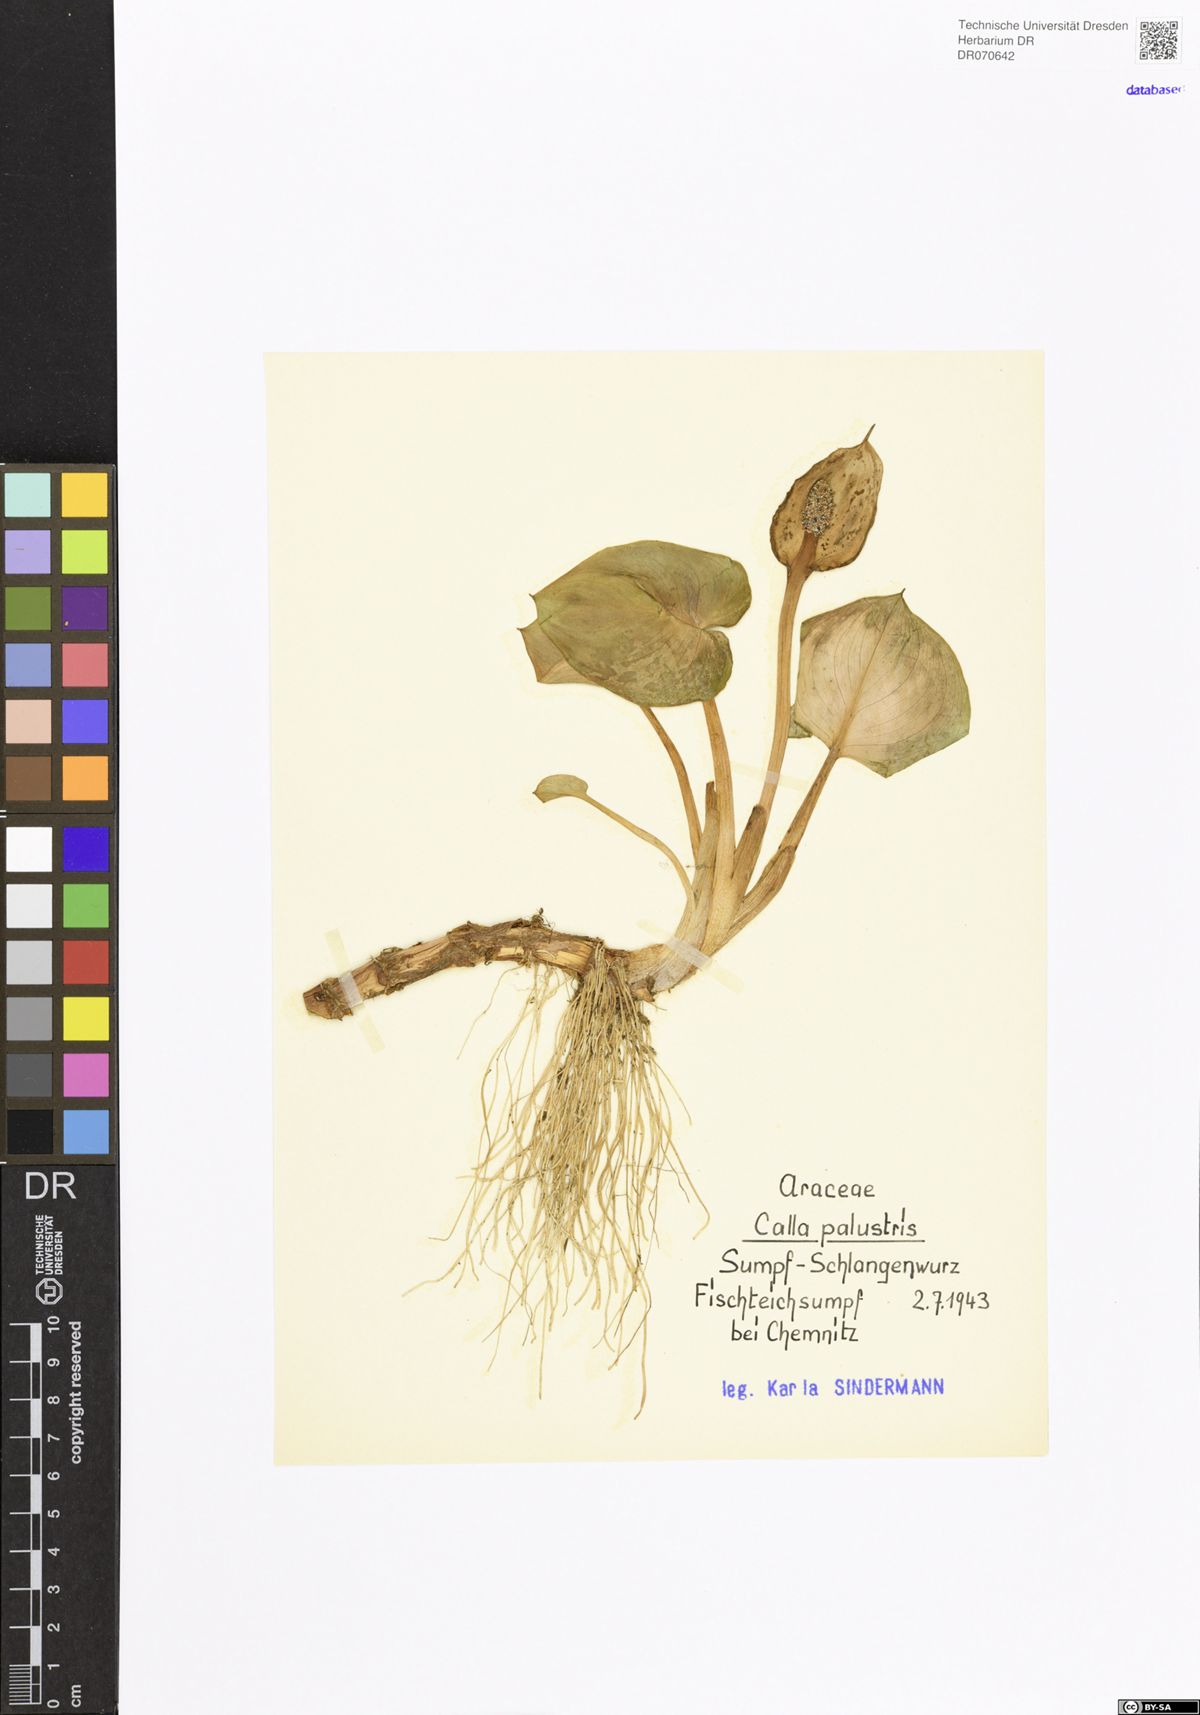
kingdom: Plantae
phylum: Tracheophyta
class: Liliopsida
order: Alismatales
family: Araceae
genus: Calla
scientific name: Calla palustris
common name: Bog arum
